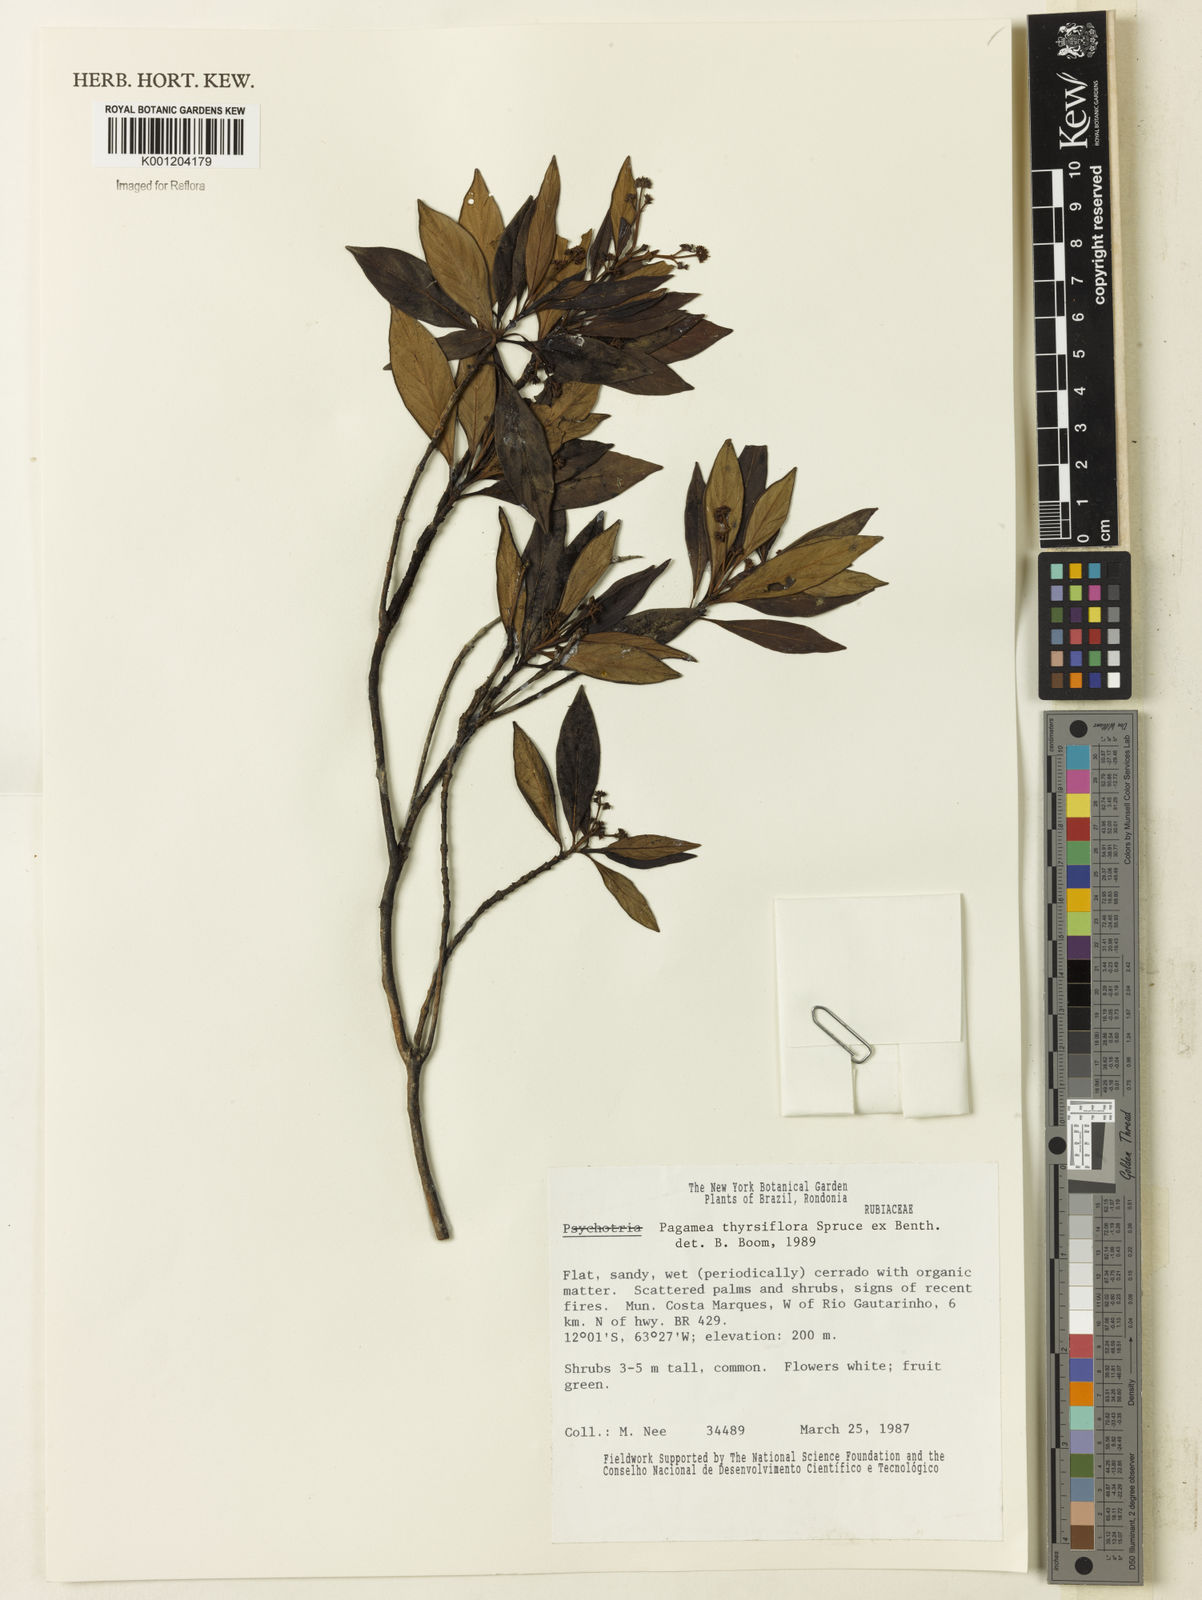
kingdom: Plantae
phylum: Tracheophyta
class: Magnoliopsida
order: Gentianales
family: Rubiaceae
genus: Pagamea
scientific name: Pagamea thyrsiflora
